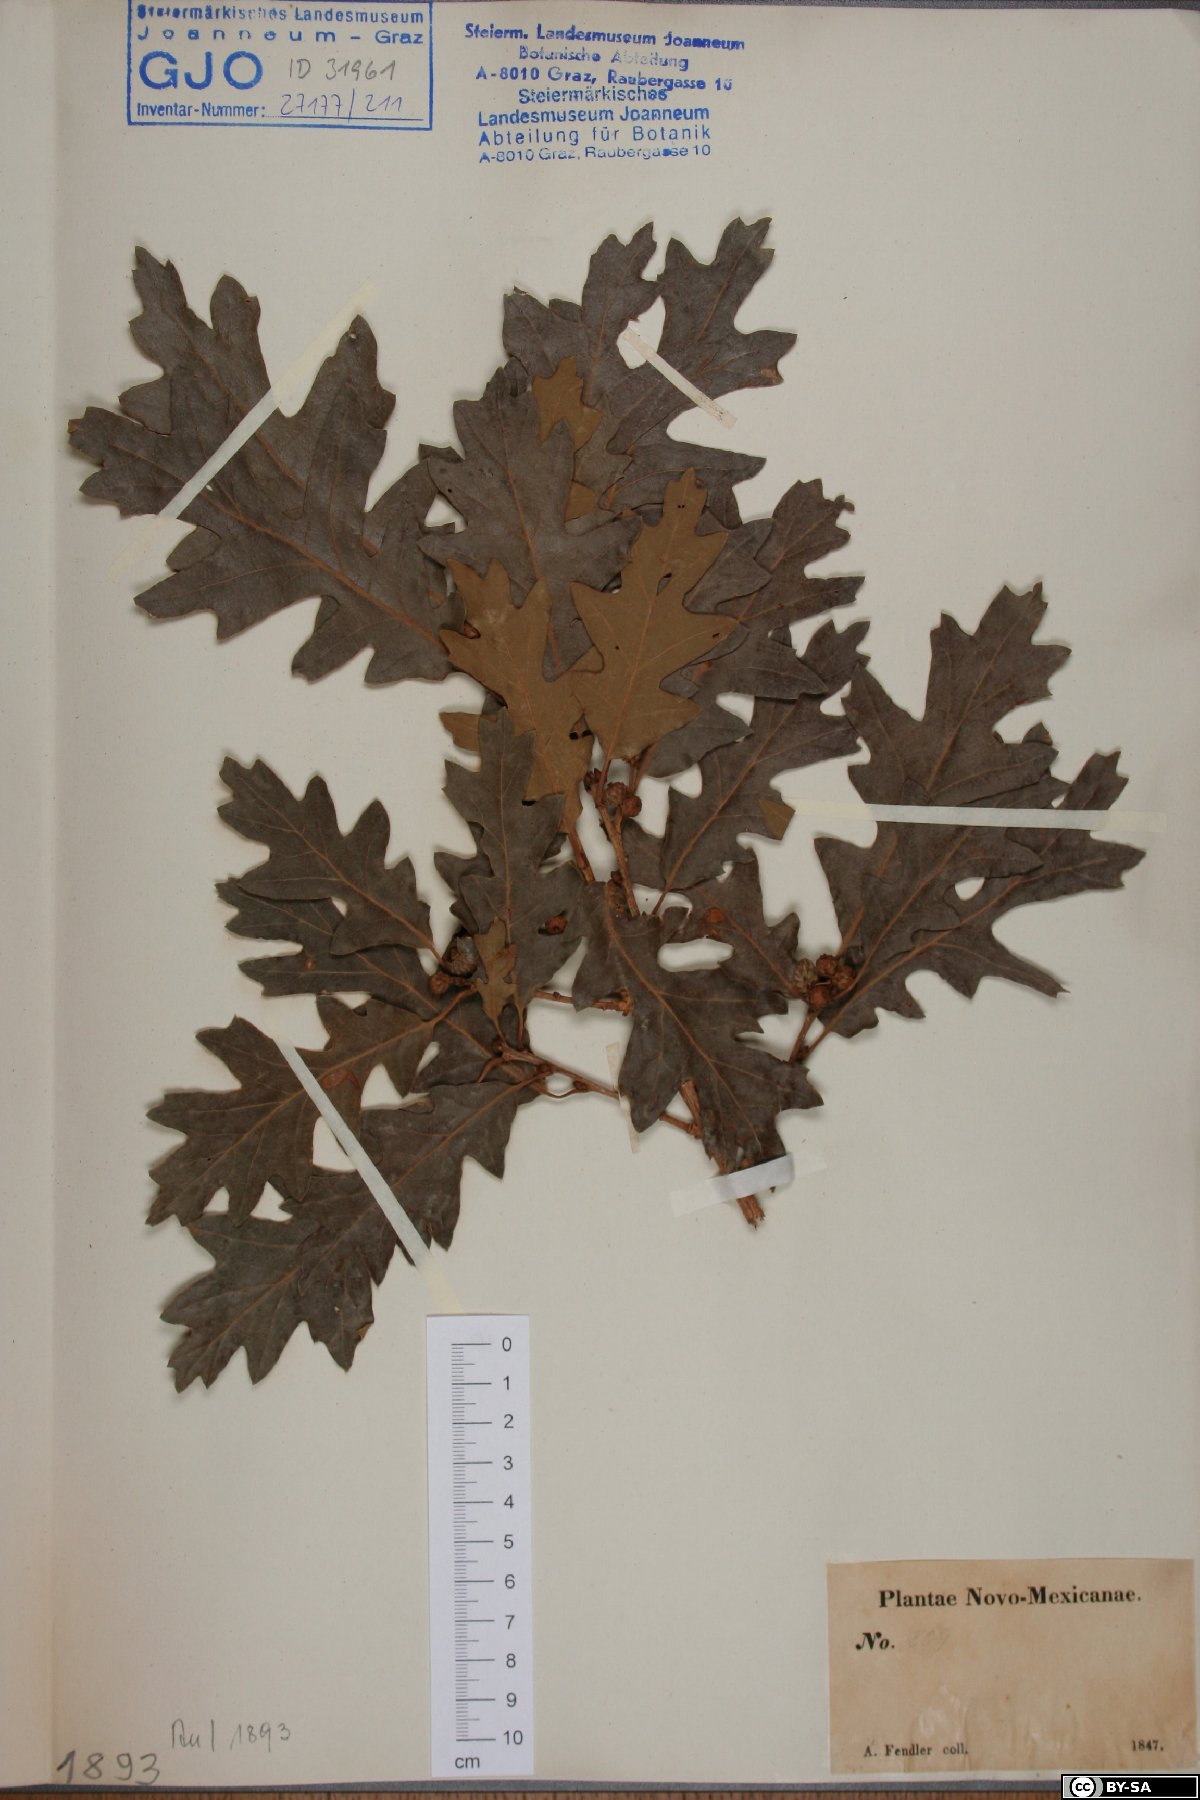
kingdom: Plantae
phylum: Tracheophyta
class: Magnoliopsida
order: Fagales
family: Fagaceae
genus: Quercus
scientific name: Quercus
